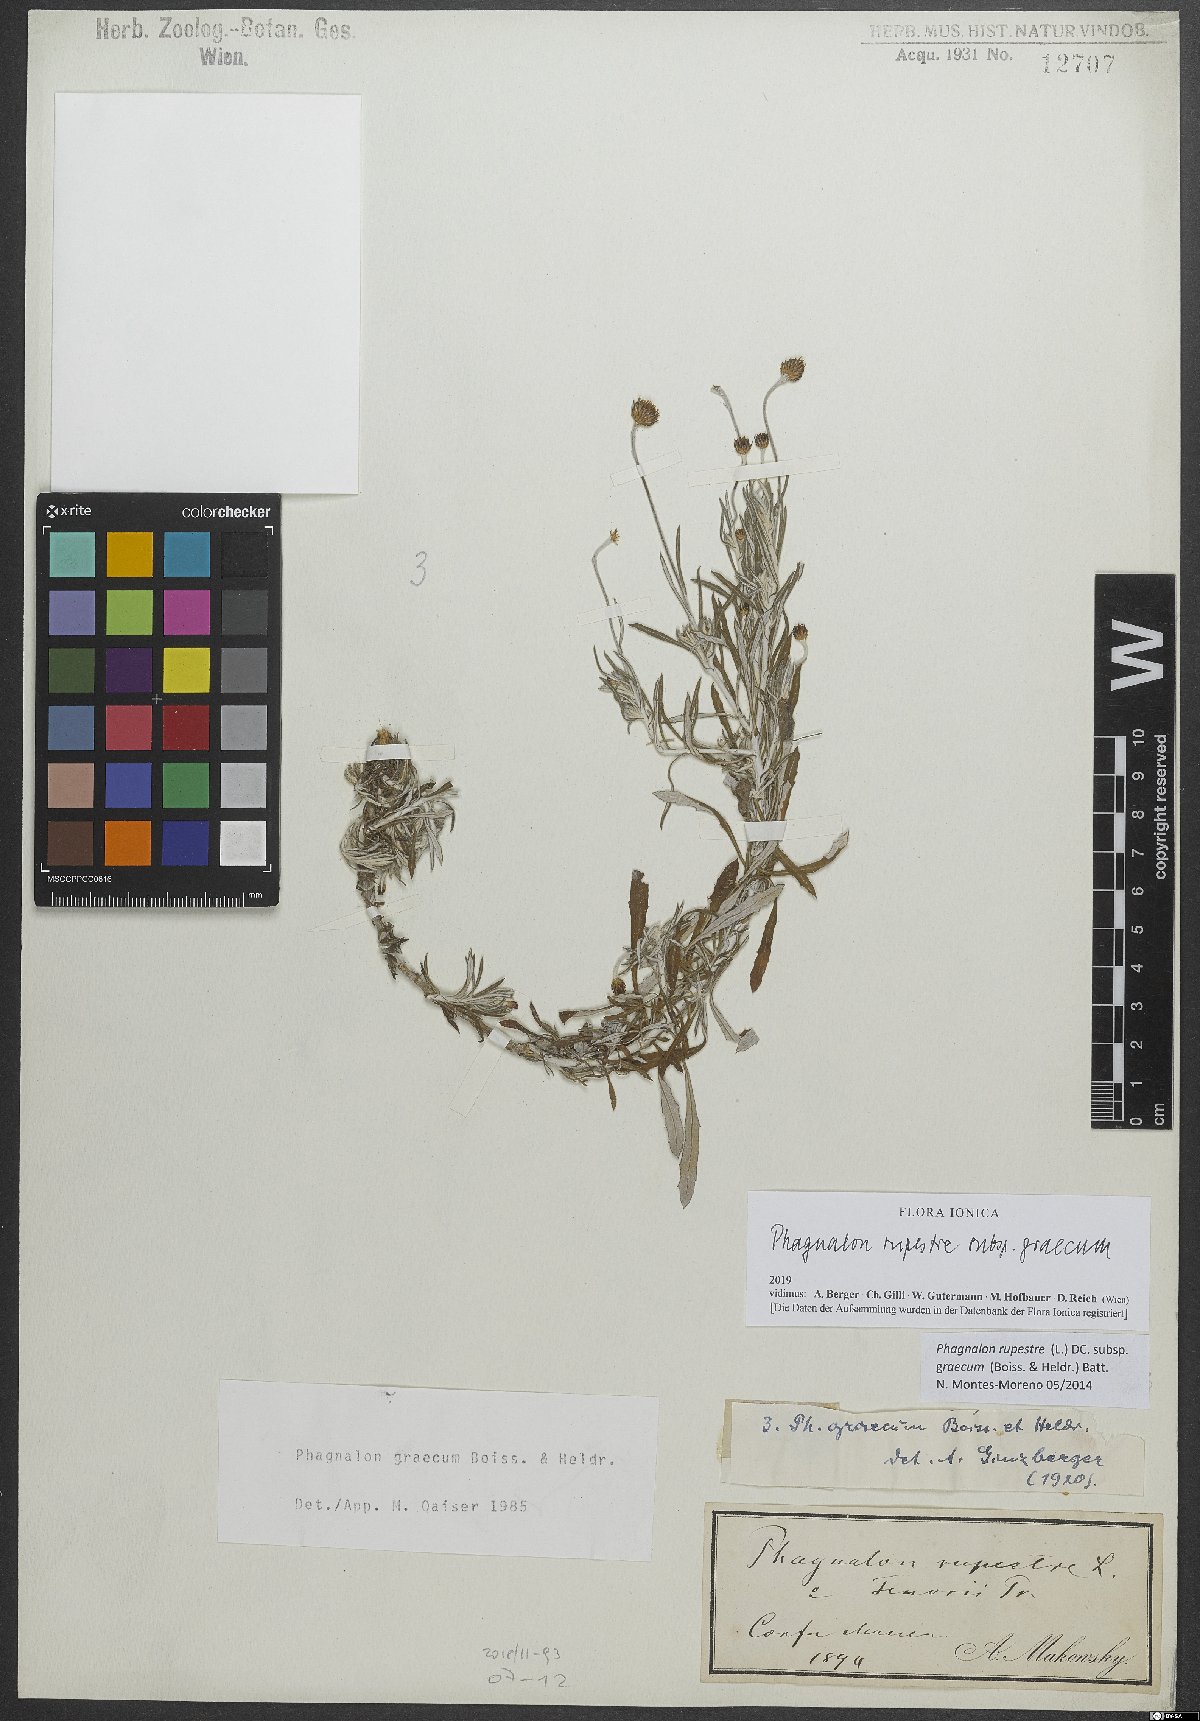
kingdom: Plantae
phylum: Tracheophyta
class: Magnoliopsida
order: Asterales
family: Asteraceae
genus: Phagnalon
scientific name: Phagnalon graecum
